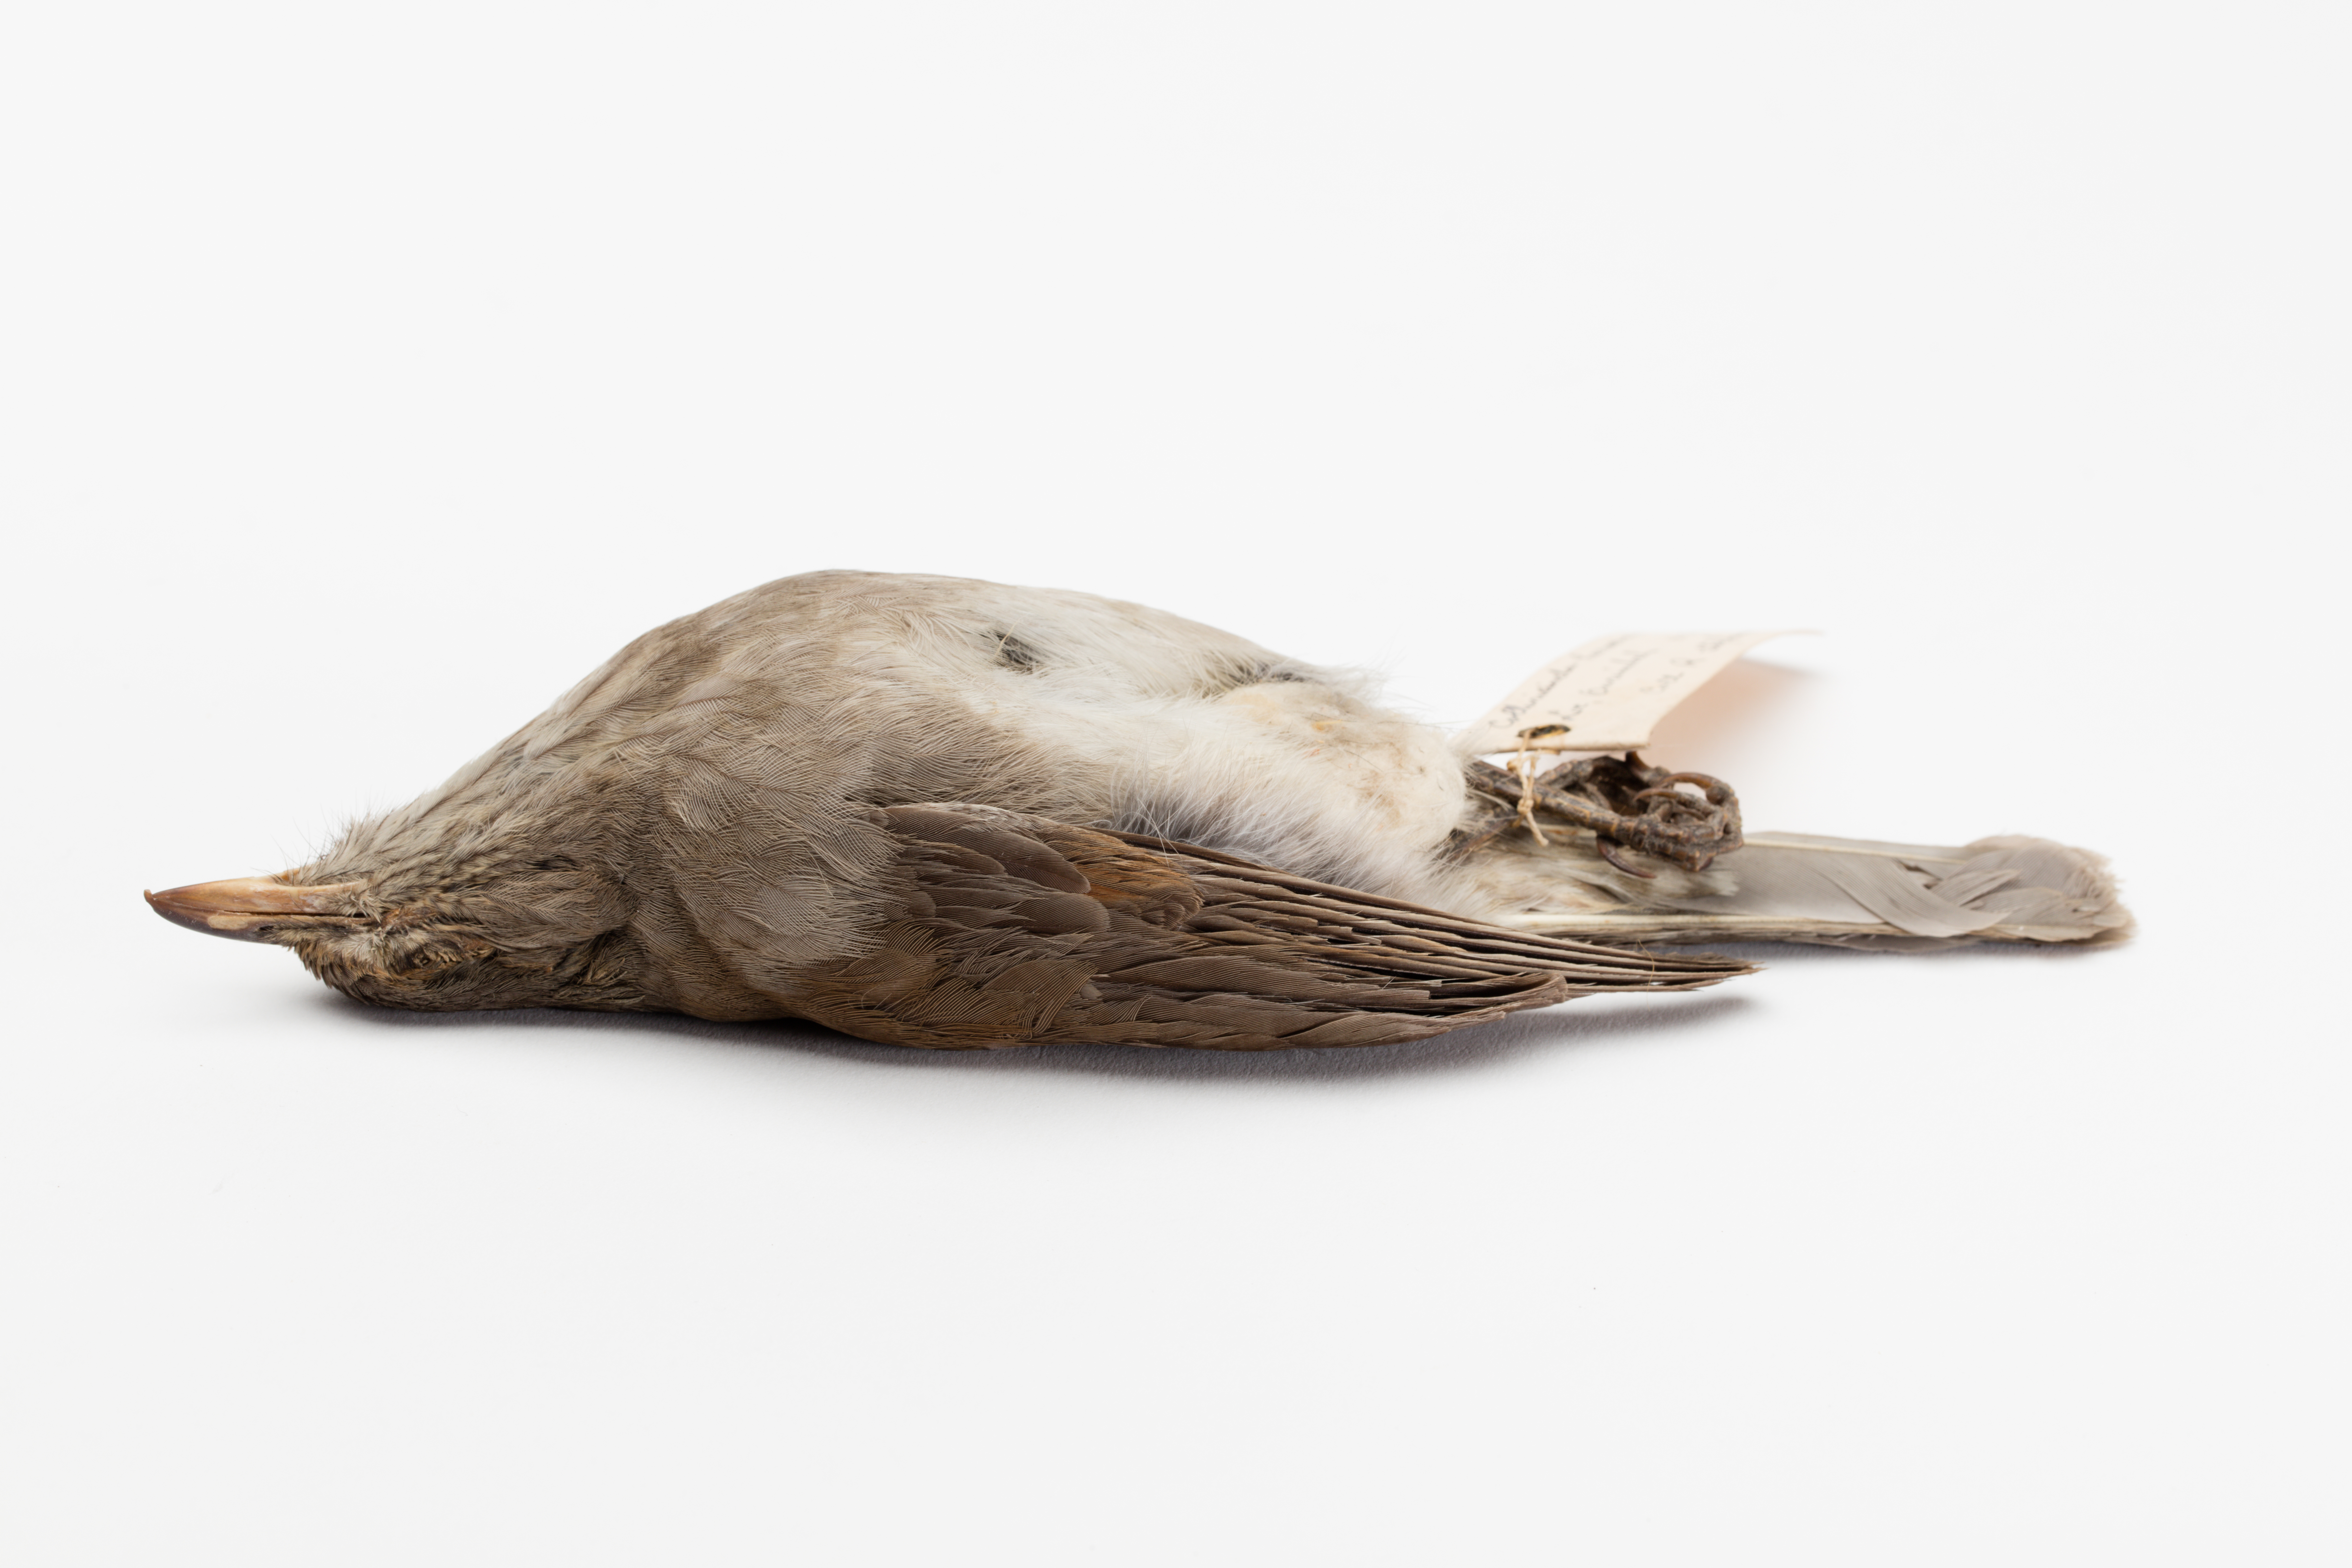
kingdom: Animalia
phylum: Chordata
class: Aves
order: Passeriformes
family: Pachycephalidae
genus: Colluricincla
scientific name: Colluricincla harmonica
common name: Grey shrikethrush
